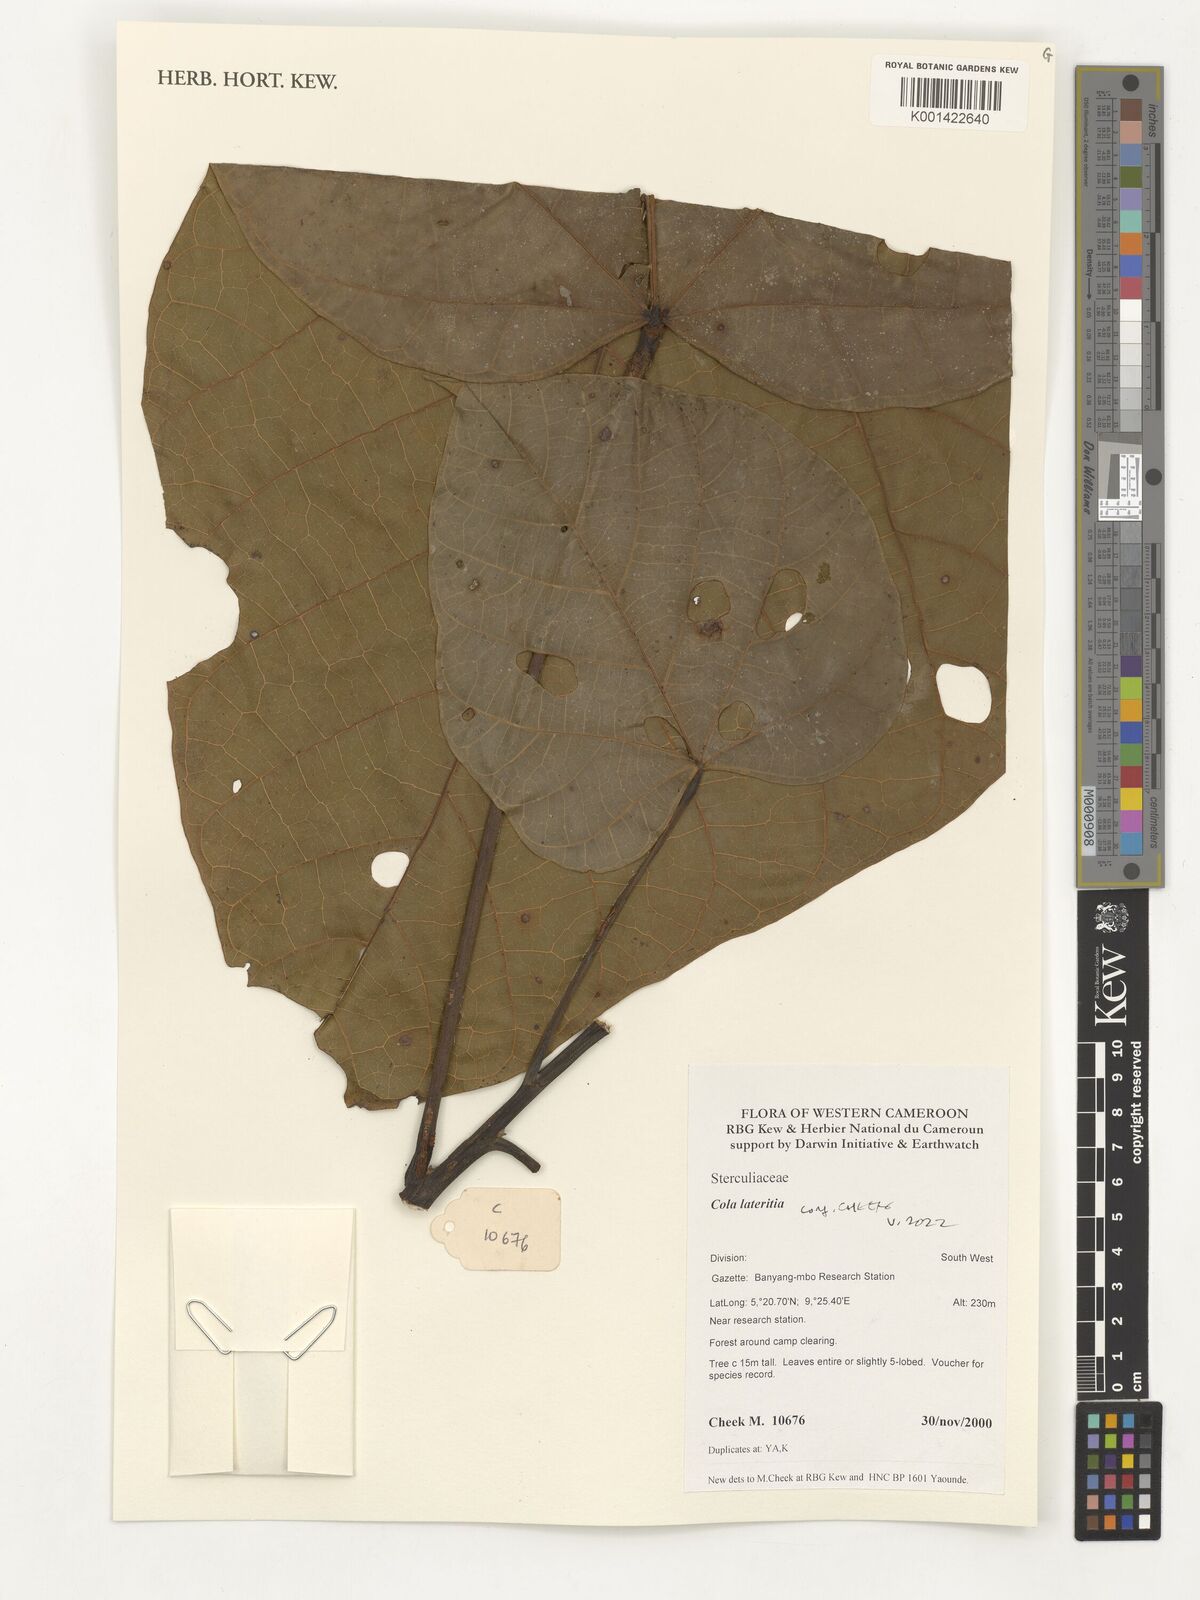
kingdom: Plantae
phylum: Tracheophyta
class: Magnoliopsida
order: Malvales
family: Malvaceae
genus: Cola
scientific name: Cola lateritia
